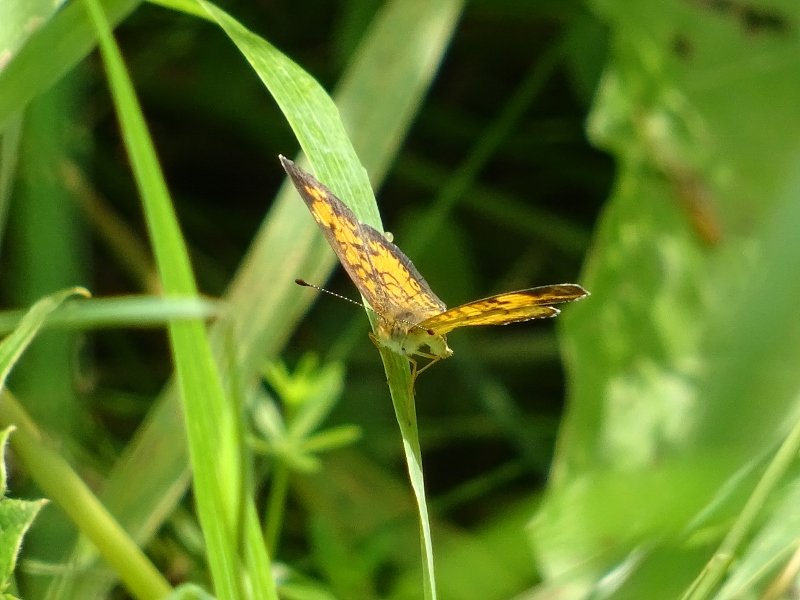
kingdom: Animalia
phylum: Arthropoda
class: Insecta
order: Lepidoptera
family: Nymphalidae
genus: Phyciodes
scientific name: Phyciodes tharos
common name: Pearl Crescent
